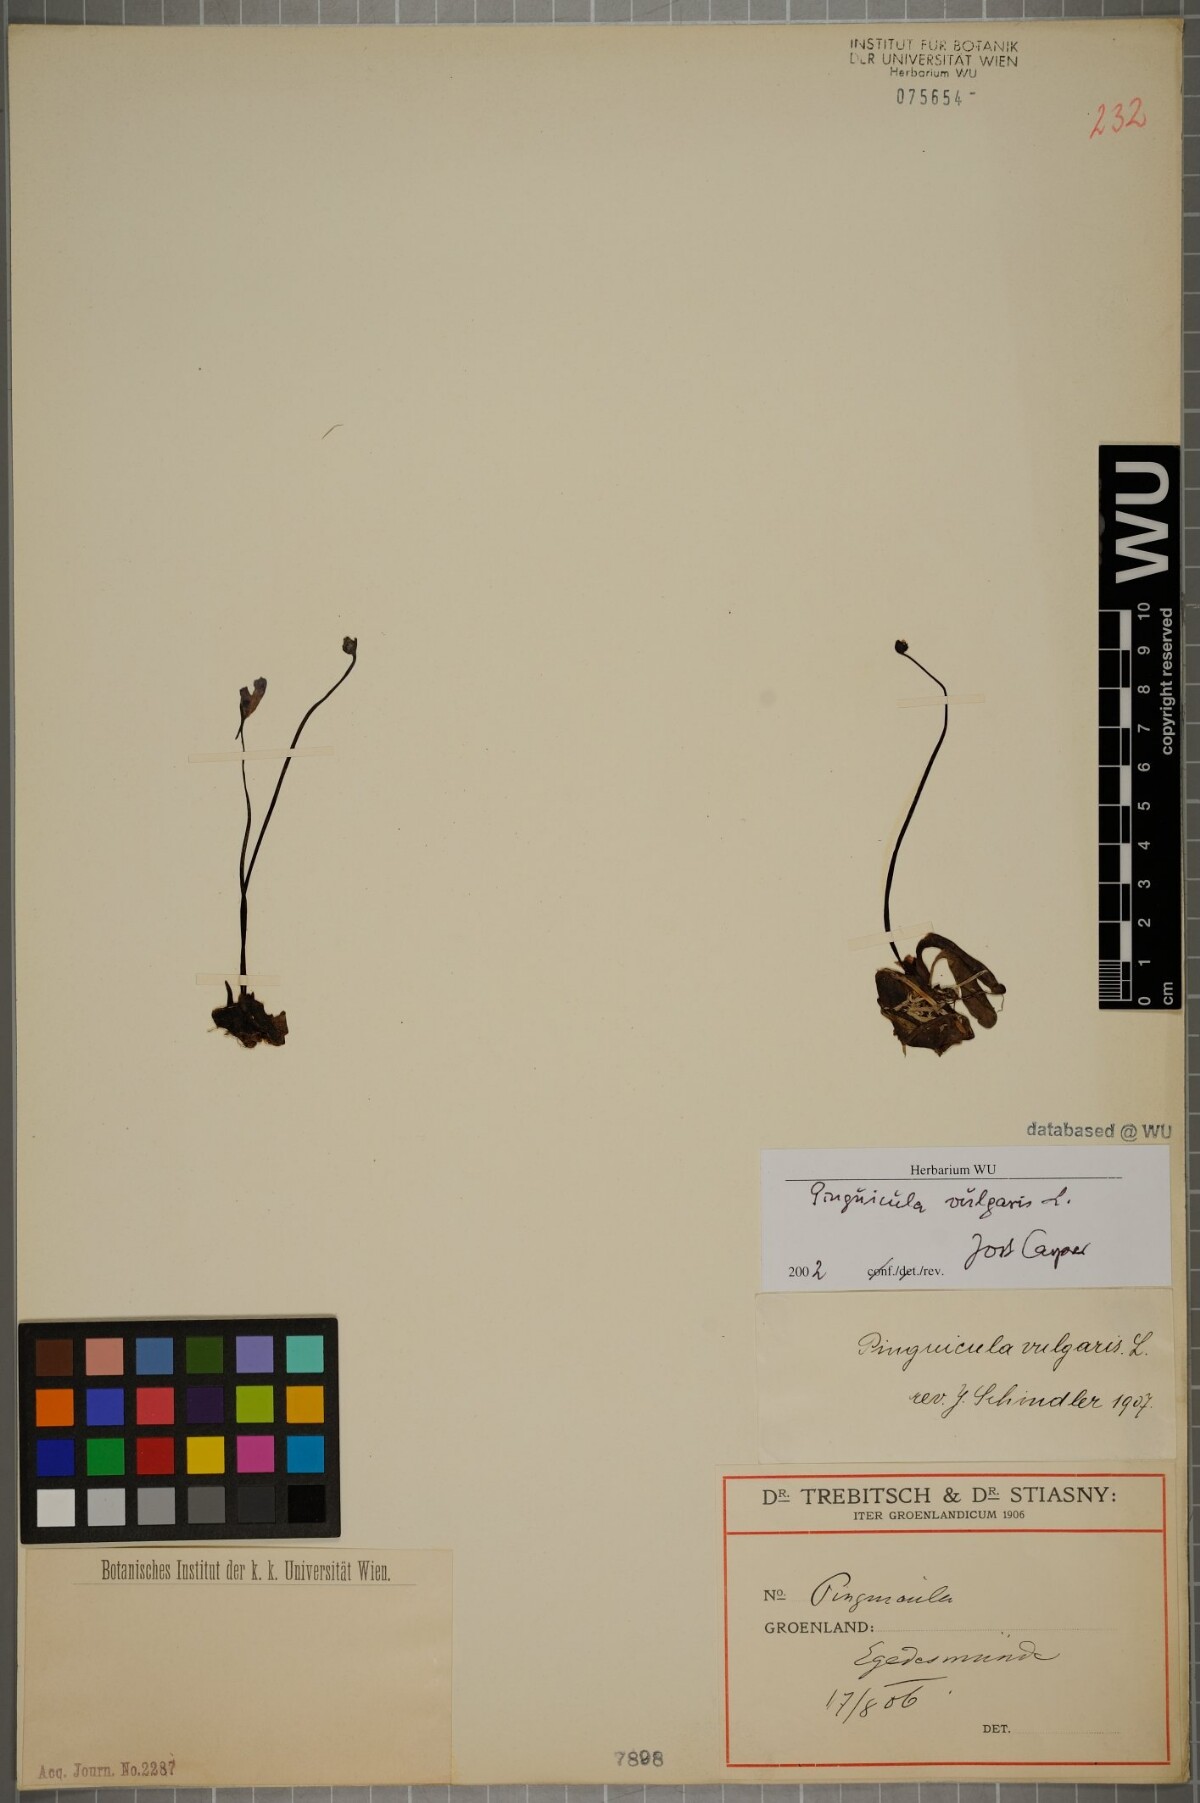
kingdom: Plantae
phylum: Tracheophyta
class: Magnoliopsida
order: Lamiales
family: Lentibulariaceae
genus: Pinguicula
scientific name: Pinguicula vulgaris
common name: Common butterwort
